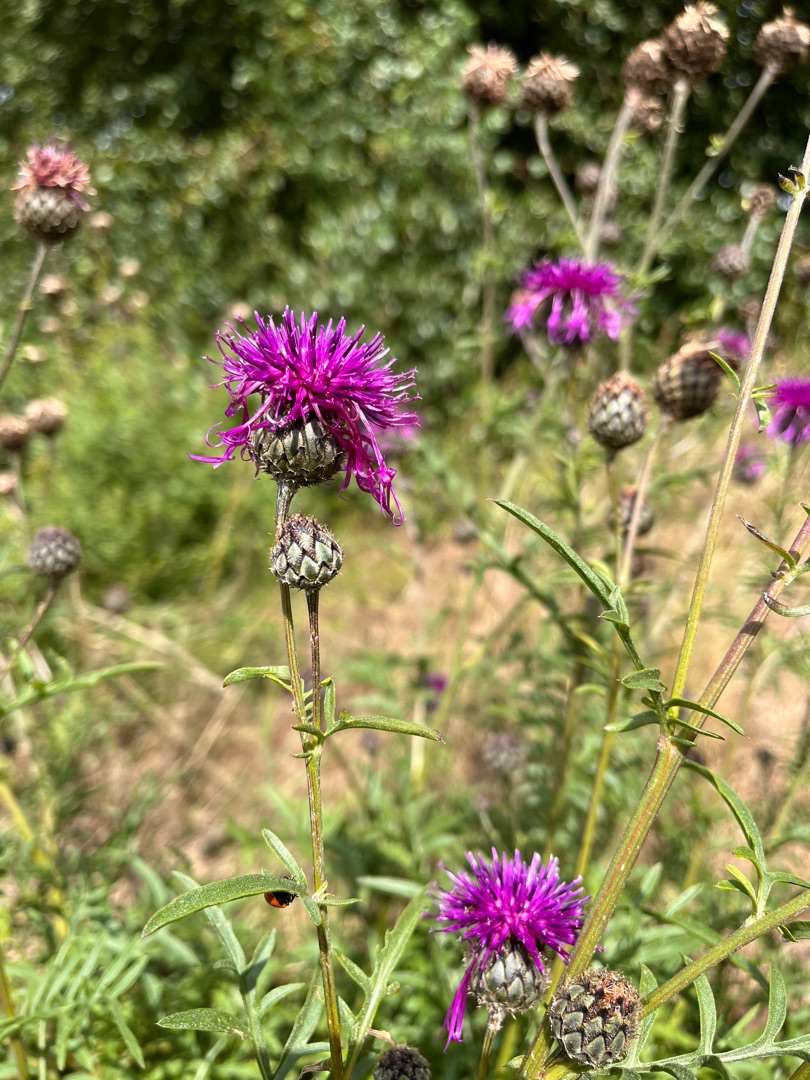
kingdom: Plantae
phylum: Tracheophyta
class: Magnoliopsida
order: Asterales
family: Asteraceae
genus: Centaurea
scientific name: Centaurea scabiosa
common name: Stor knopurt
